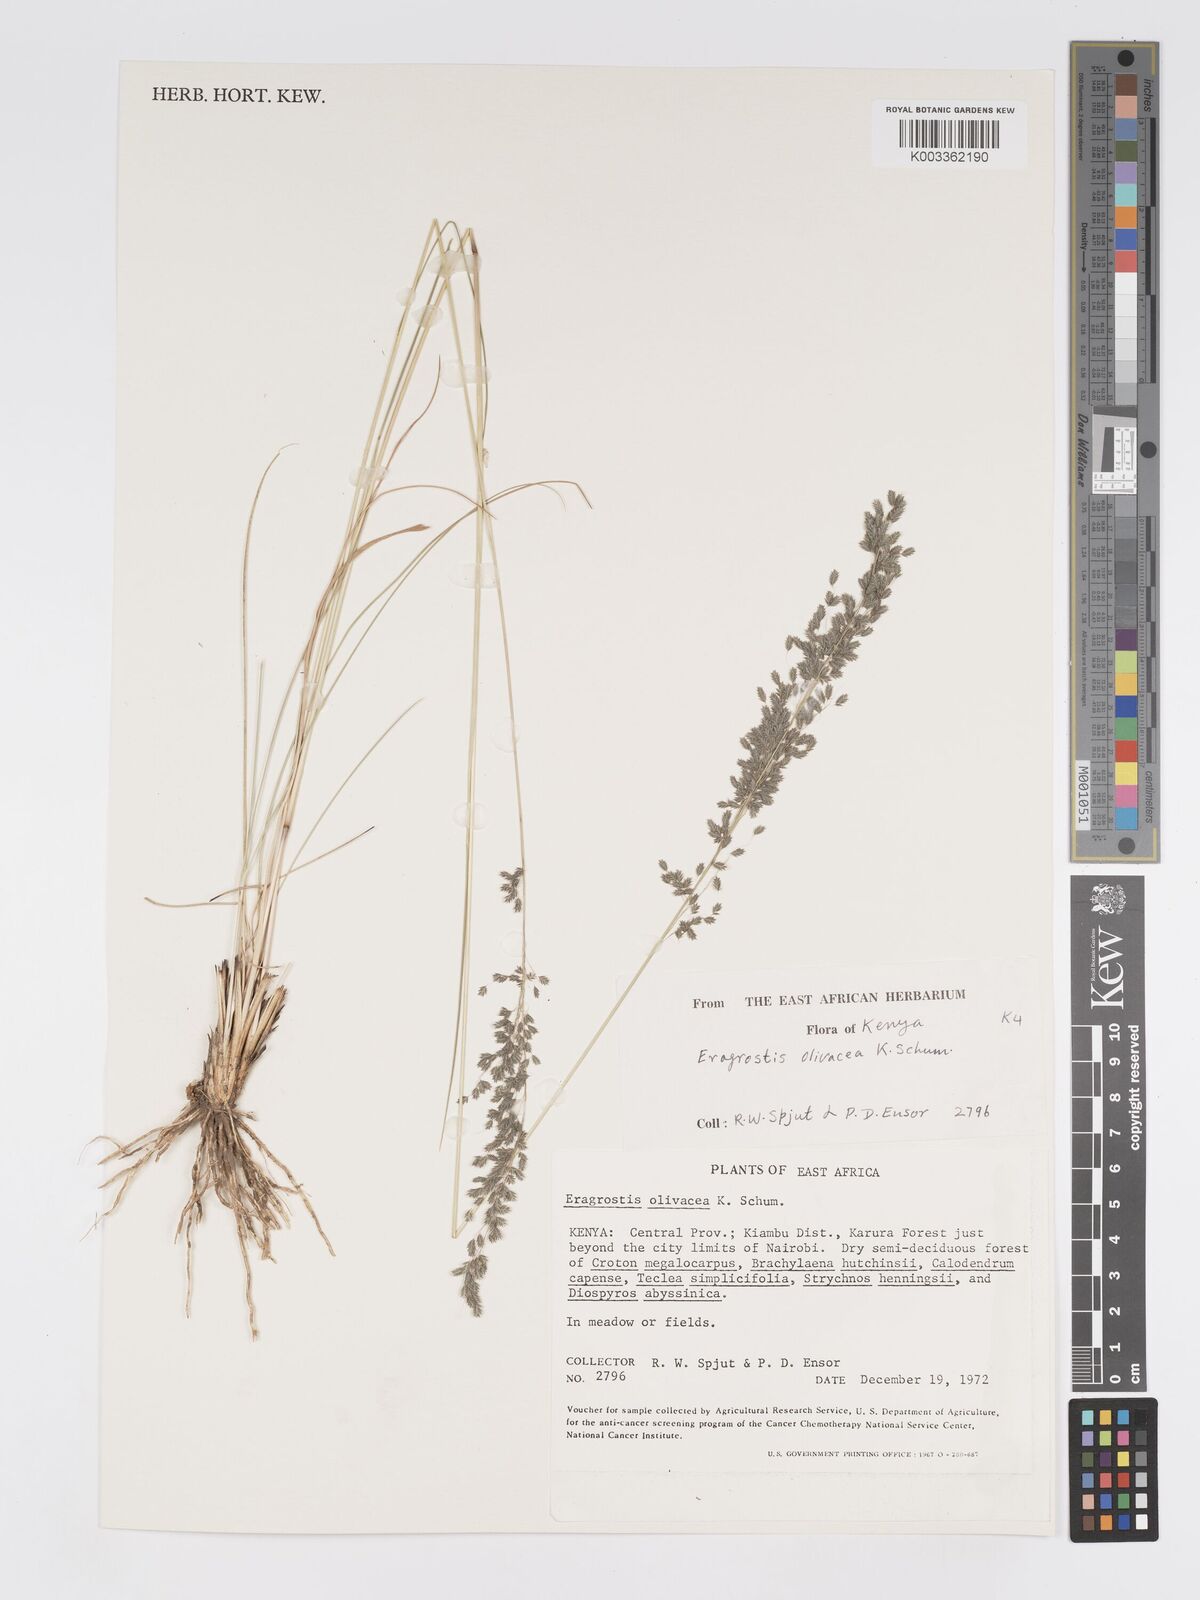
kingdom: Plantae
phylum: Tracheophyta
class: Liliopsida
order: Poales
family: Poaceae
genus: Eragrostis
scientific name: Eragrostis olivacea
